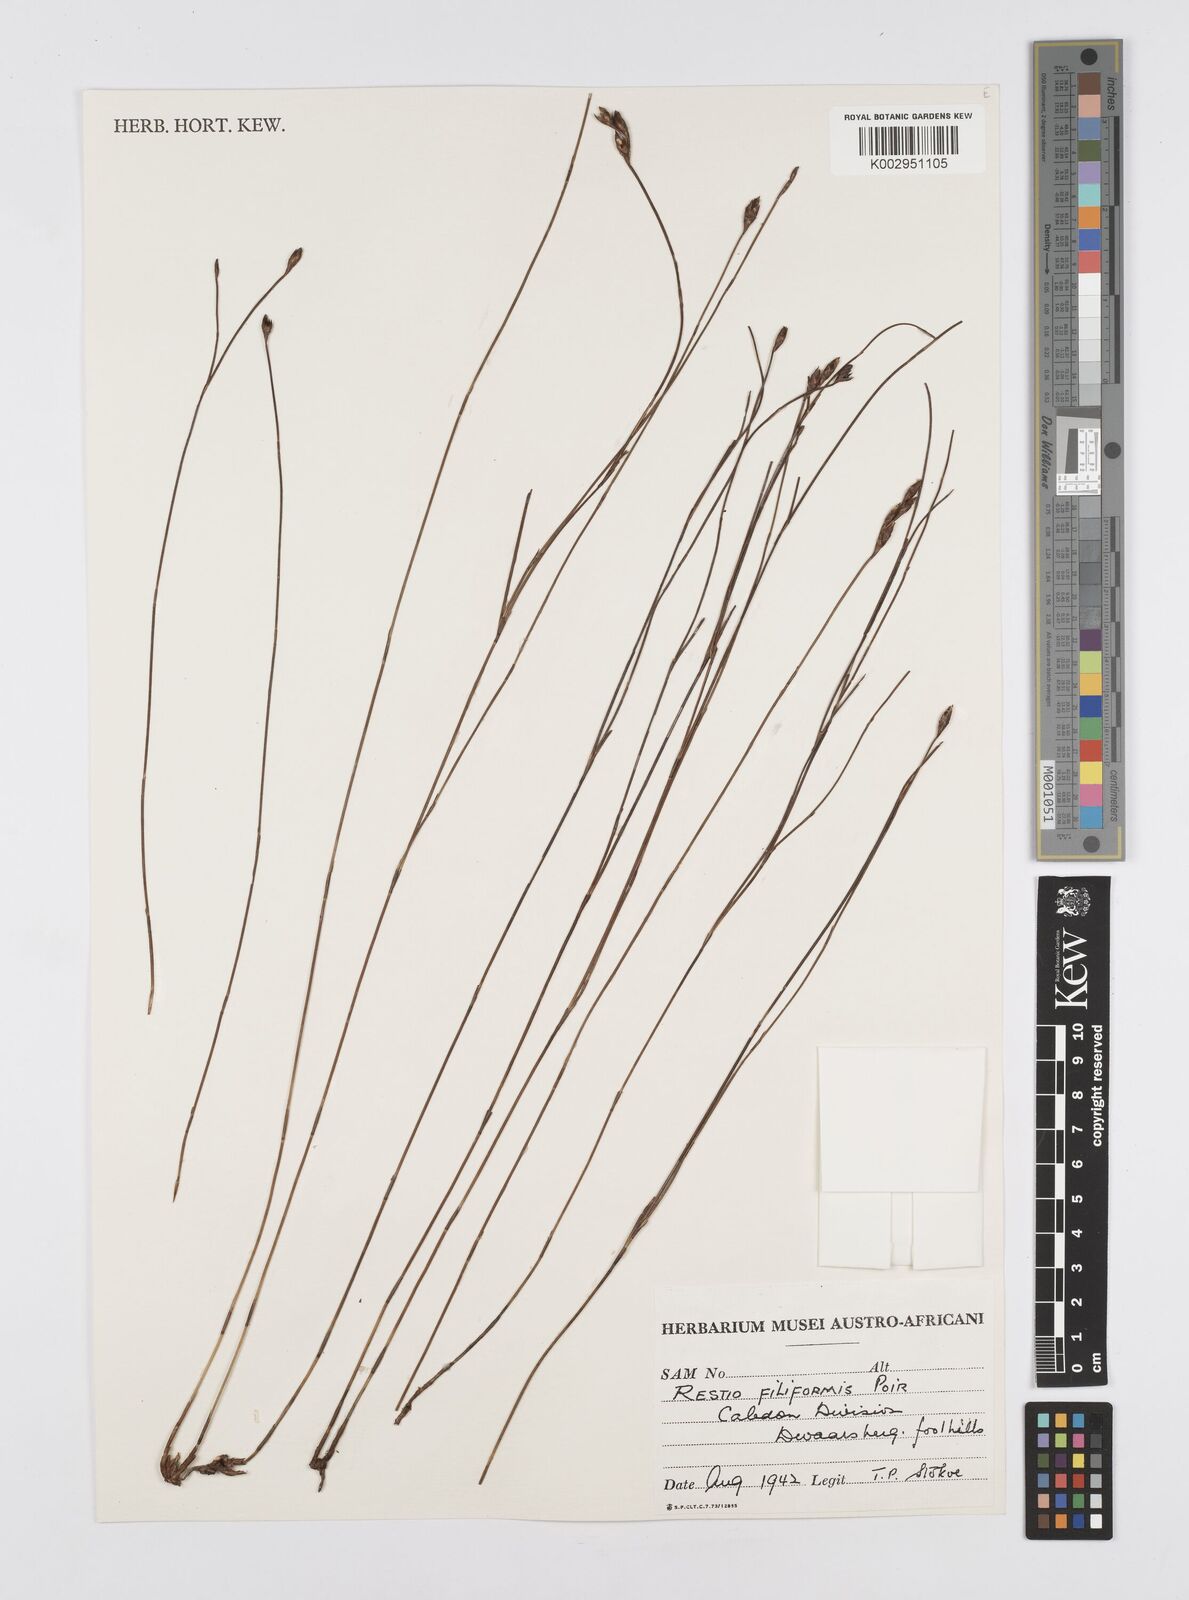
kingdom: Plantae
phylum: Tracheophyta
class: Liliopsida
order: Poales
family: Restionaceae
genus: Restio
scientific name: Restio filiformis
